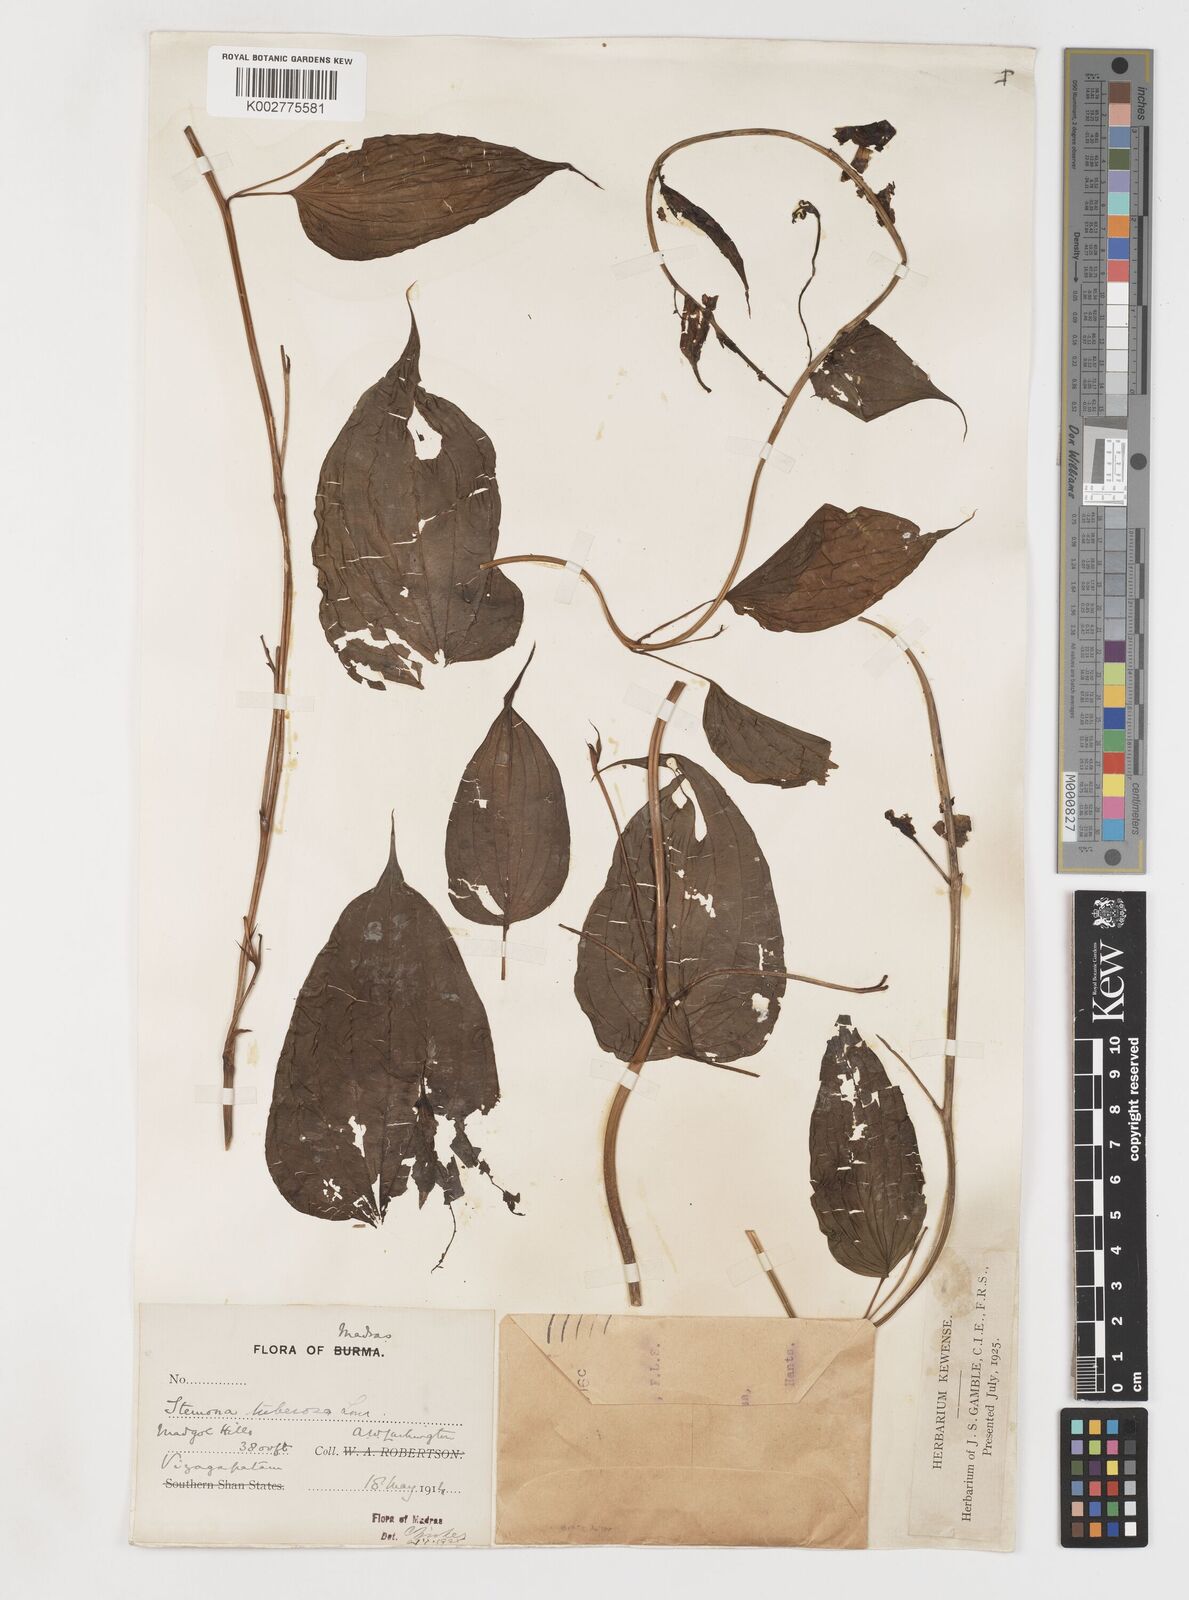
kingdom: Plantae
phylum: Tracheophyta
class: Liliopsida
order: Pandanales
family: Stemonaceae
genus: Stemona
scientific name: Stemona tuberosa
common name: Stemona
